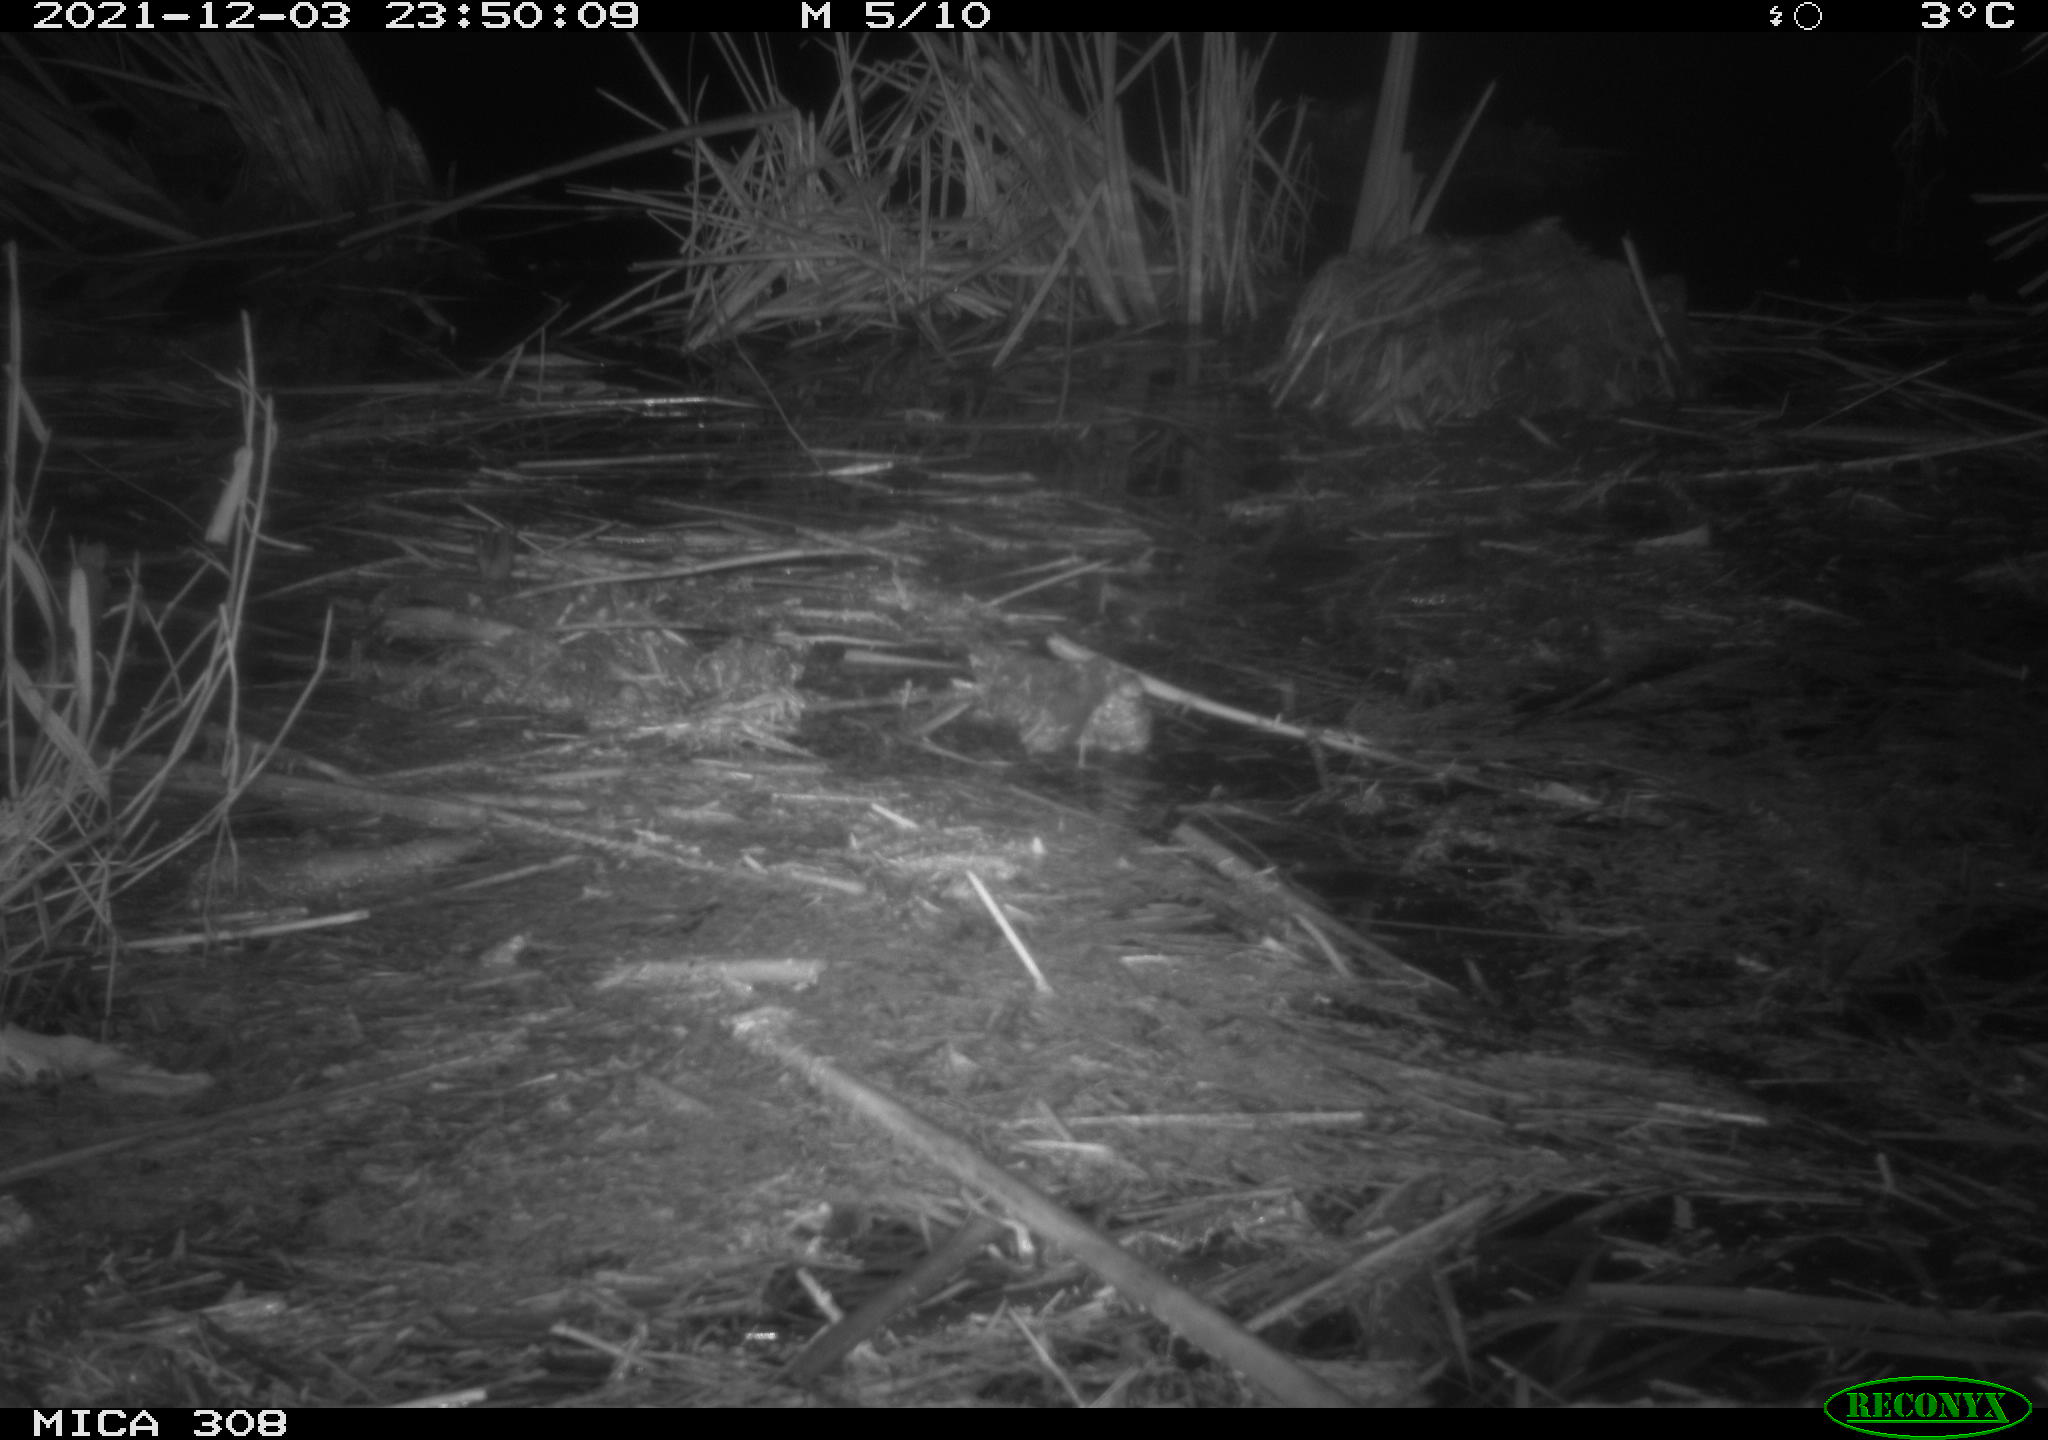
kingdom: Animalia
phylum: Chordata
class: Mammalia
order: Rodentia
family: Cricetidae
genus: Ondatra
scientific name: Ondatra zibethicus
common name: Muskrat
